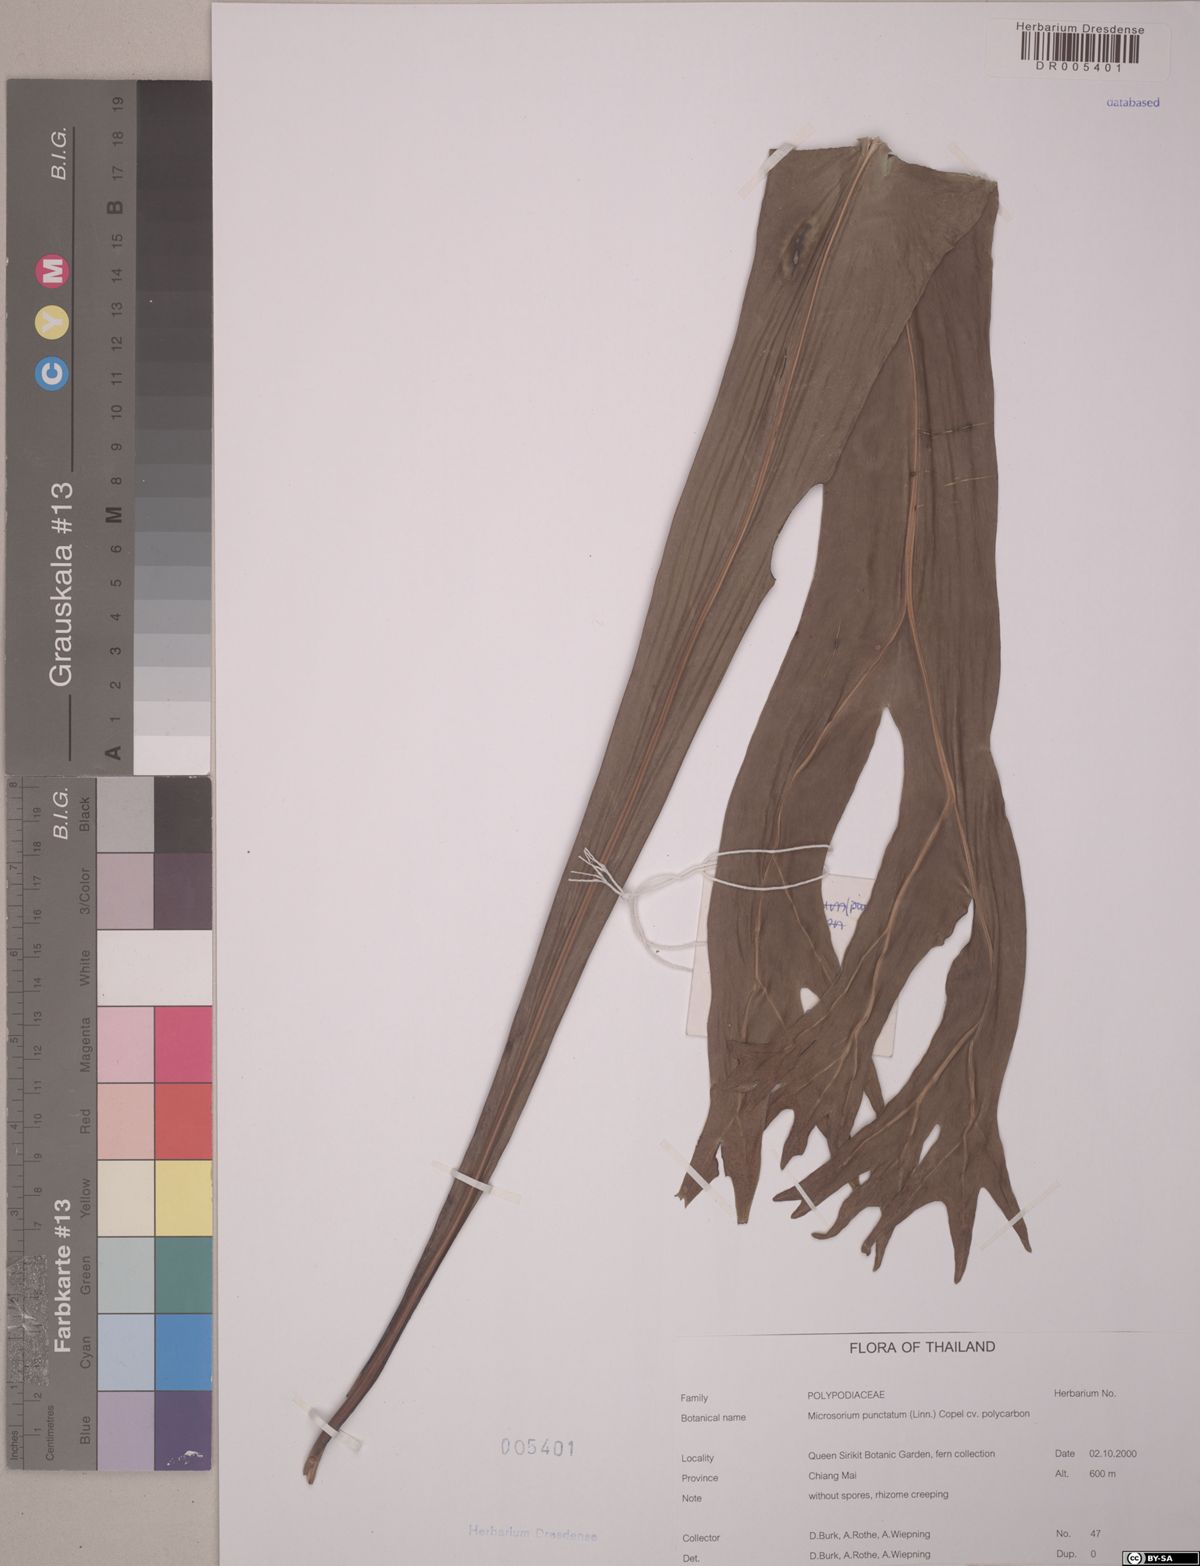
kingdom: Plantae
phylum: Tracheophyta
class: Polypodiopsida
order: Polypodiales
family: Polypodiaceae
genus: Microsorum
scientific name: Microsorum punctatum
